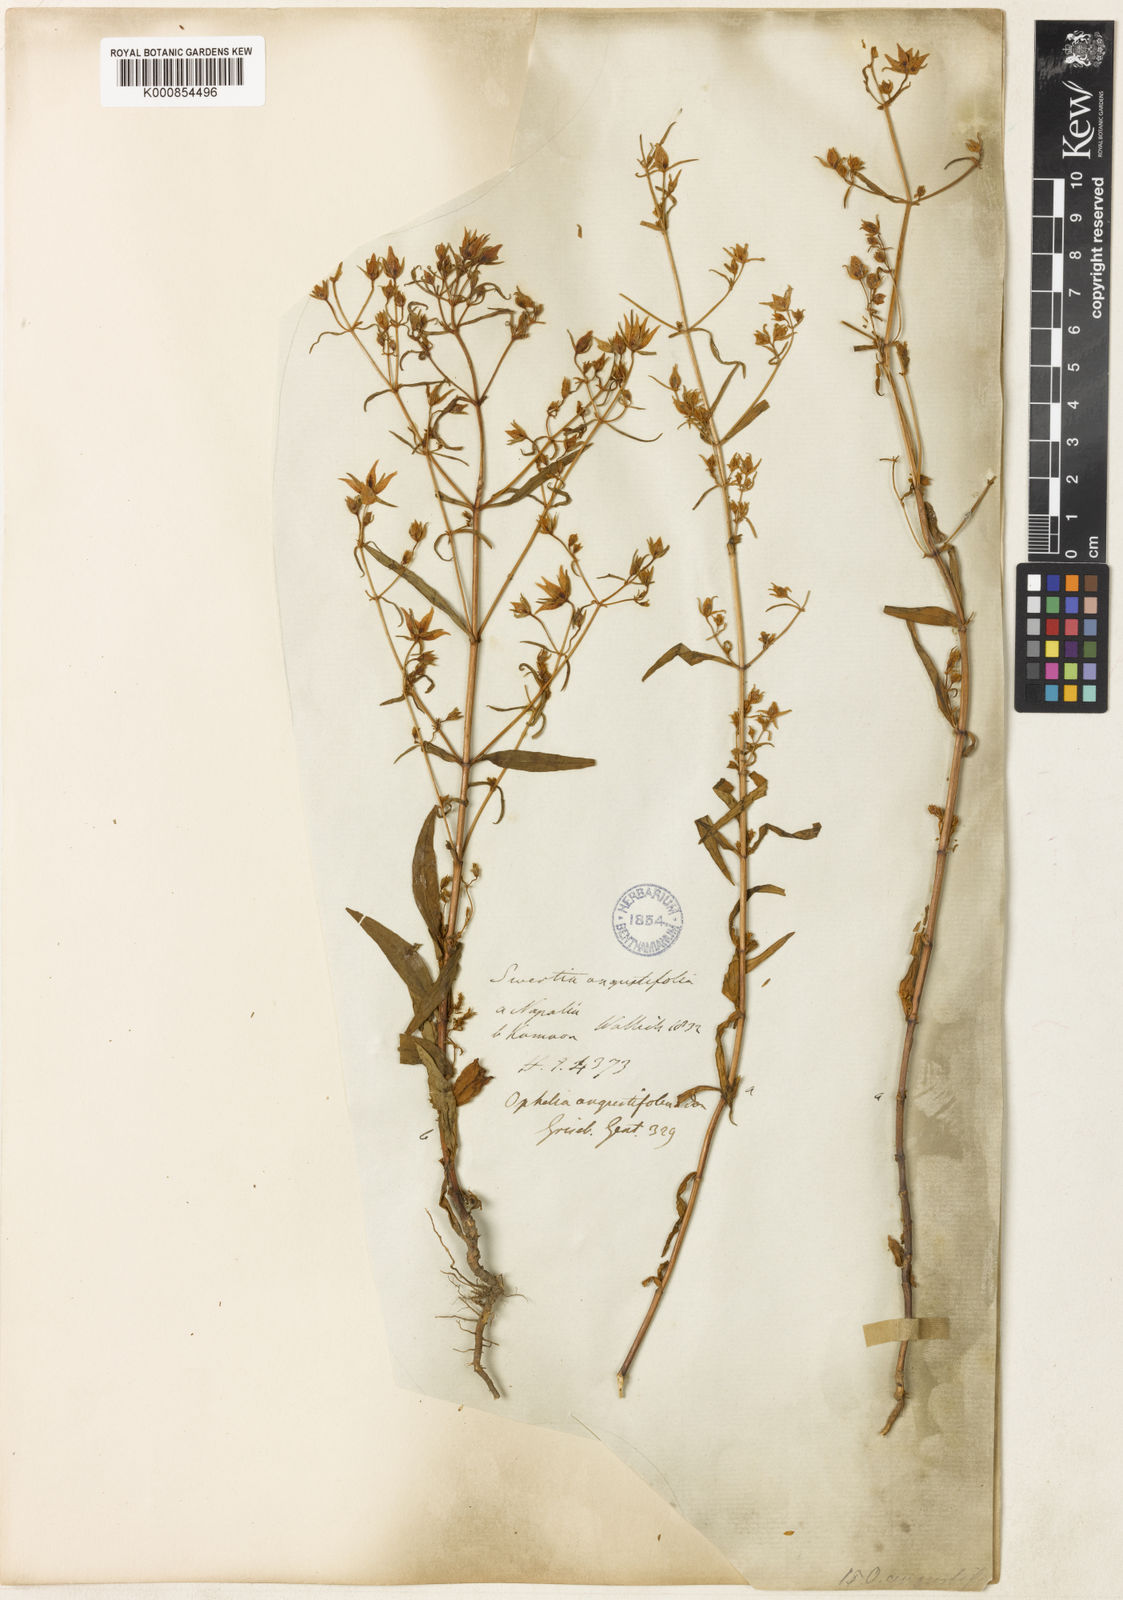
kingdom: Plantae
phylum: Tracheophyta
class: Magnoliopsida
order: Gentianales
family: Gentianaceae
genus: Swertia
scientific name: Swertia angustifolia
